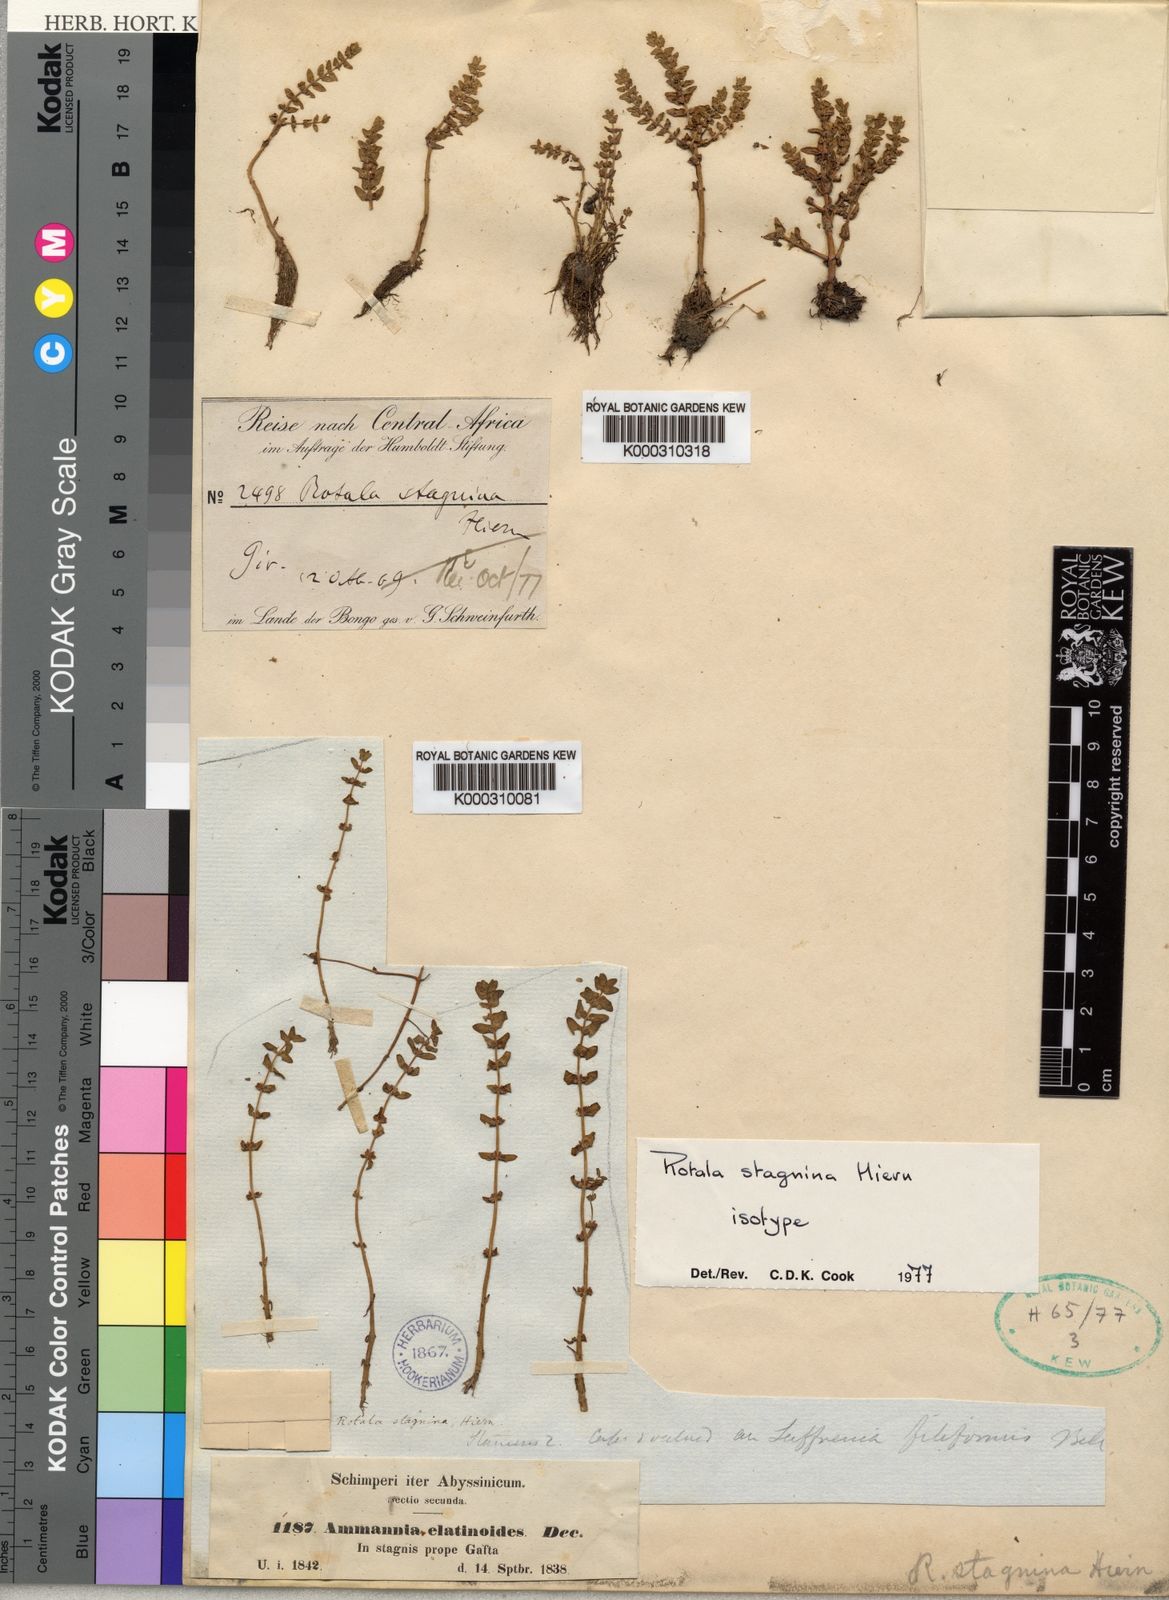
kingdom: Plantae
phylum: Tracheophyta
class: Magnoliopsida
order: Myrtales
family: Lythraceae
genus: Rotala
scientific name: Rotala stagnina
